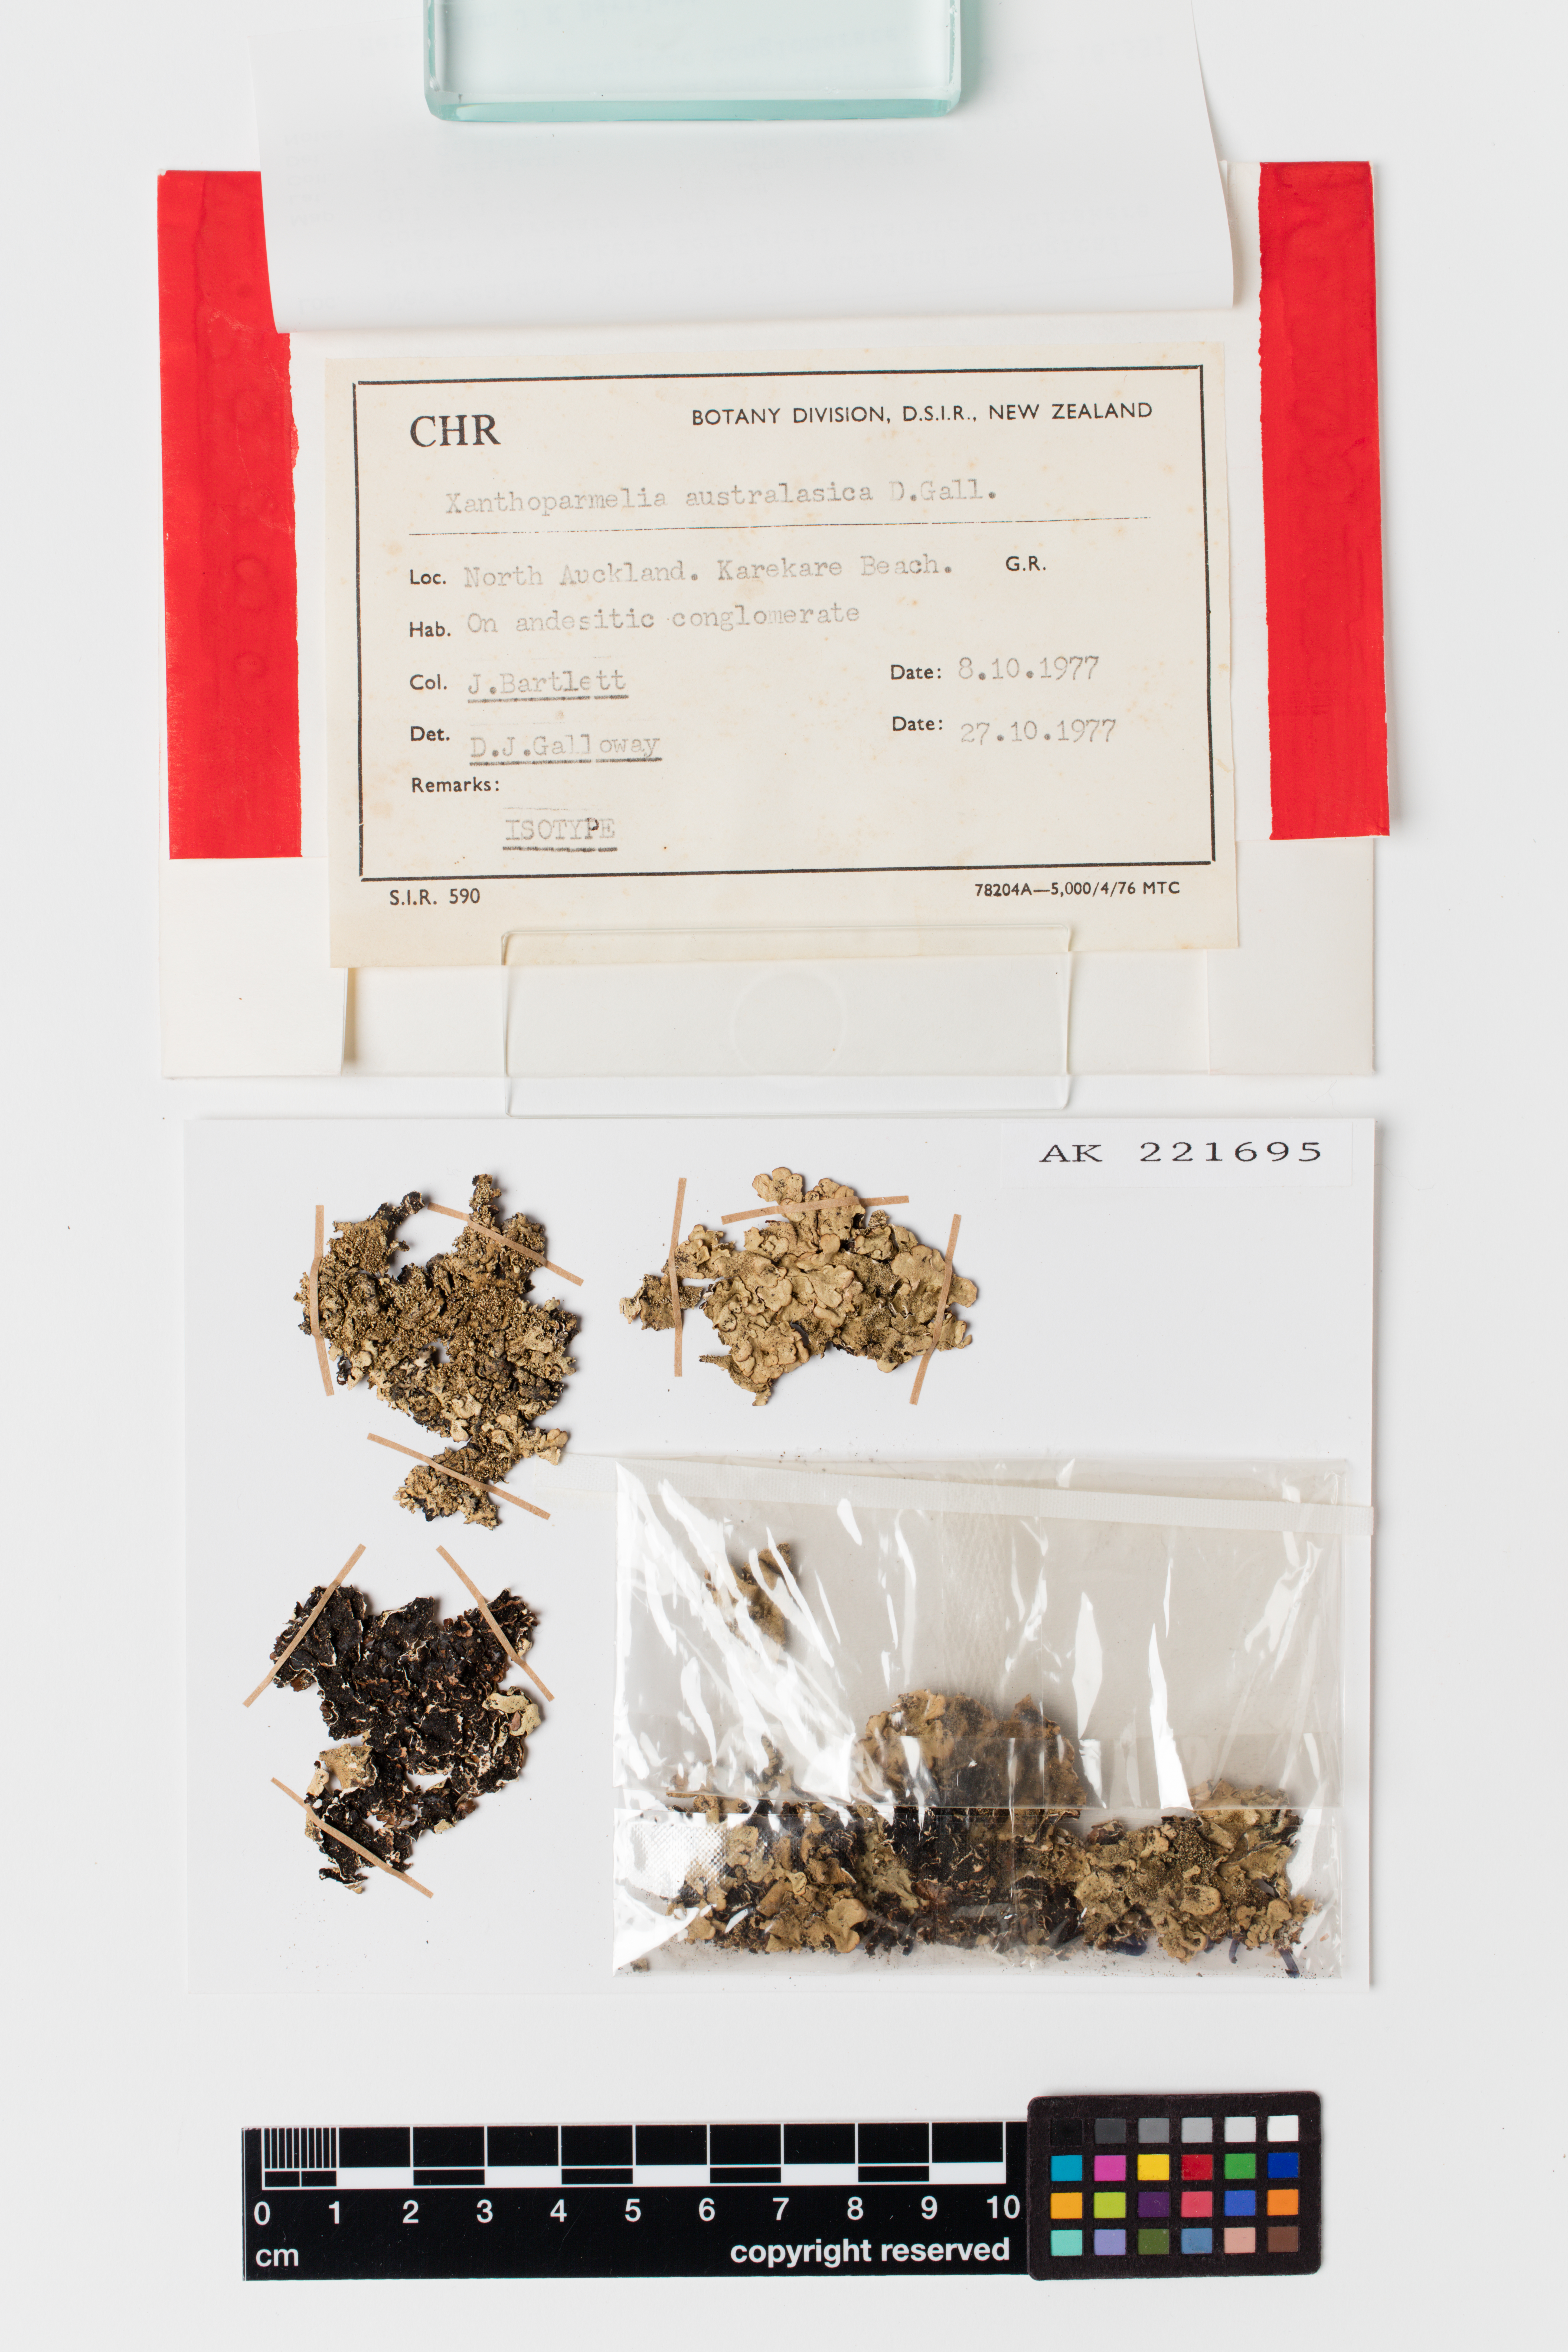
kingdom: Fungi
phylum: Ascomycota
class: Lecanoromycetes
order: Lecanorales
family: Parmeliaceae
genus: Xanthoparmelia
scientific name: Xanthoparmelia australasica
